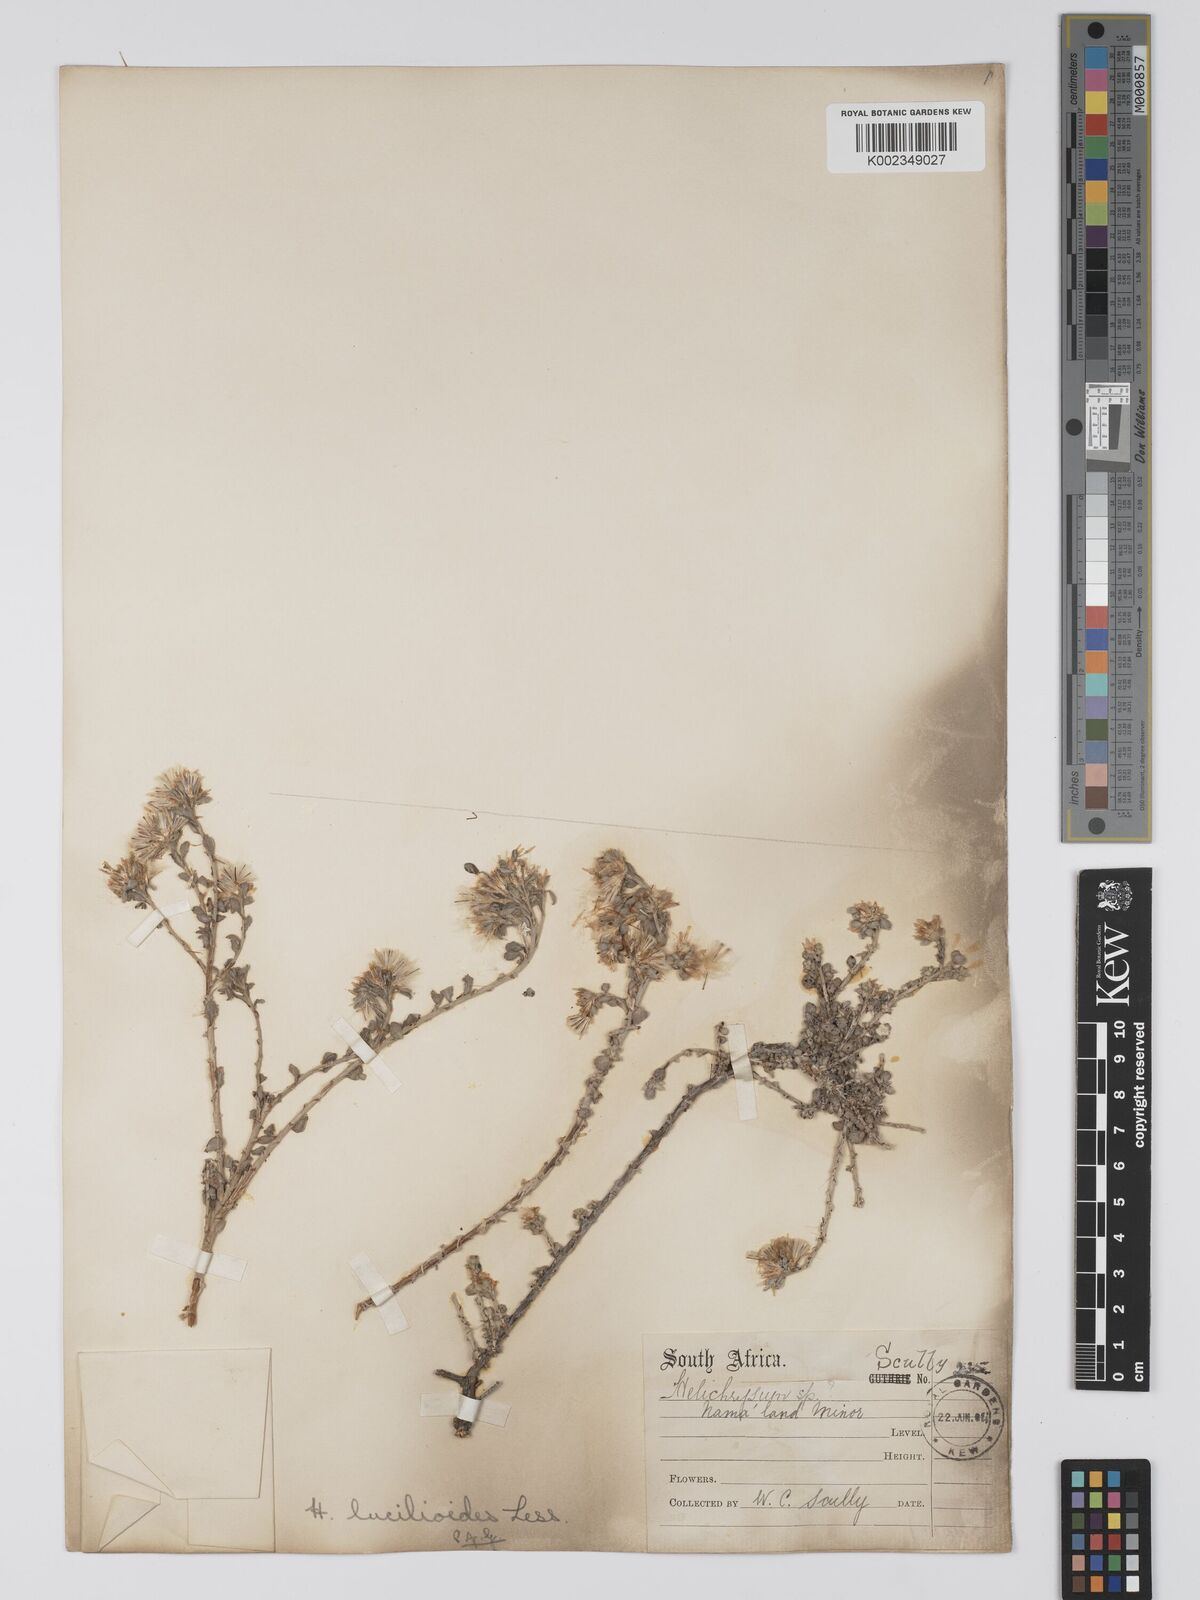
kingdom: Plantae
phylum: Tracheophyta
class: Magnoliopsida
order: Asterales
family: Asteraceae
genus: Helichrysum
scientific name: Helichrysum lucilioides
